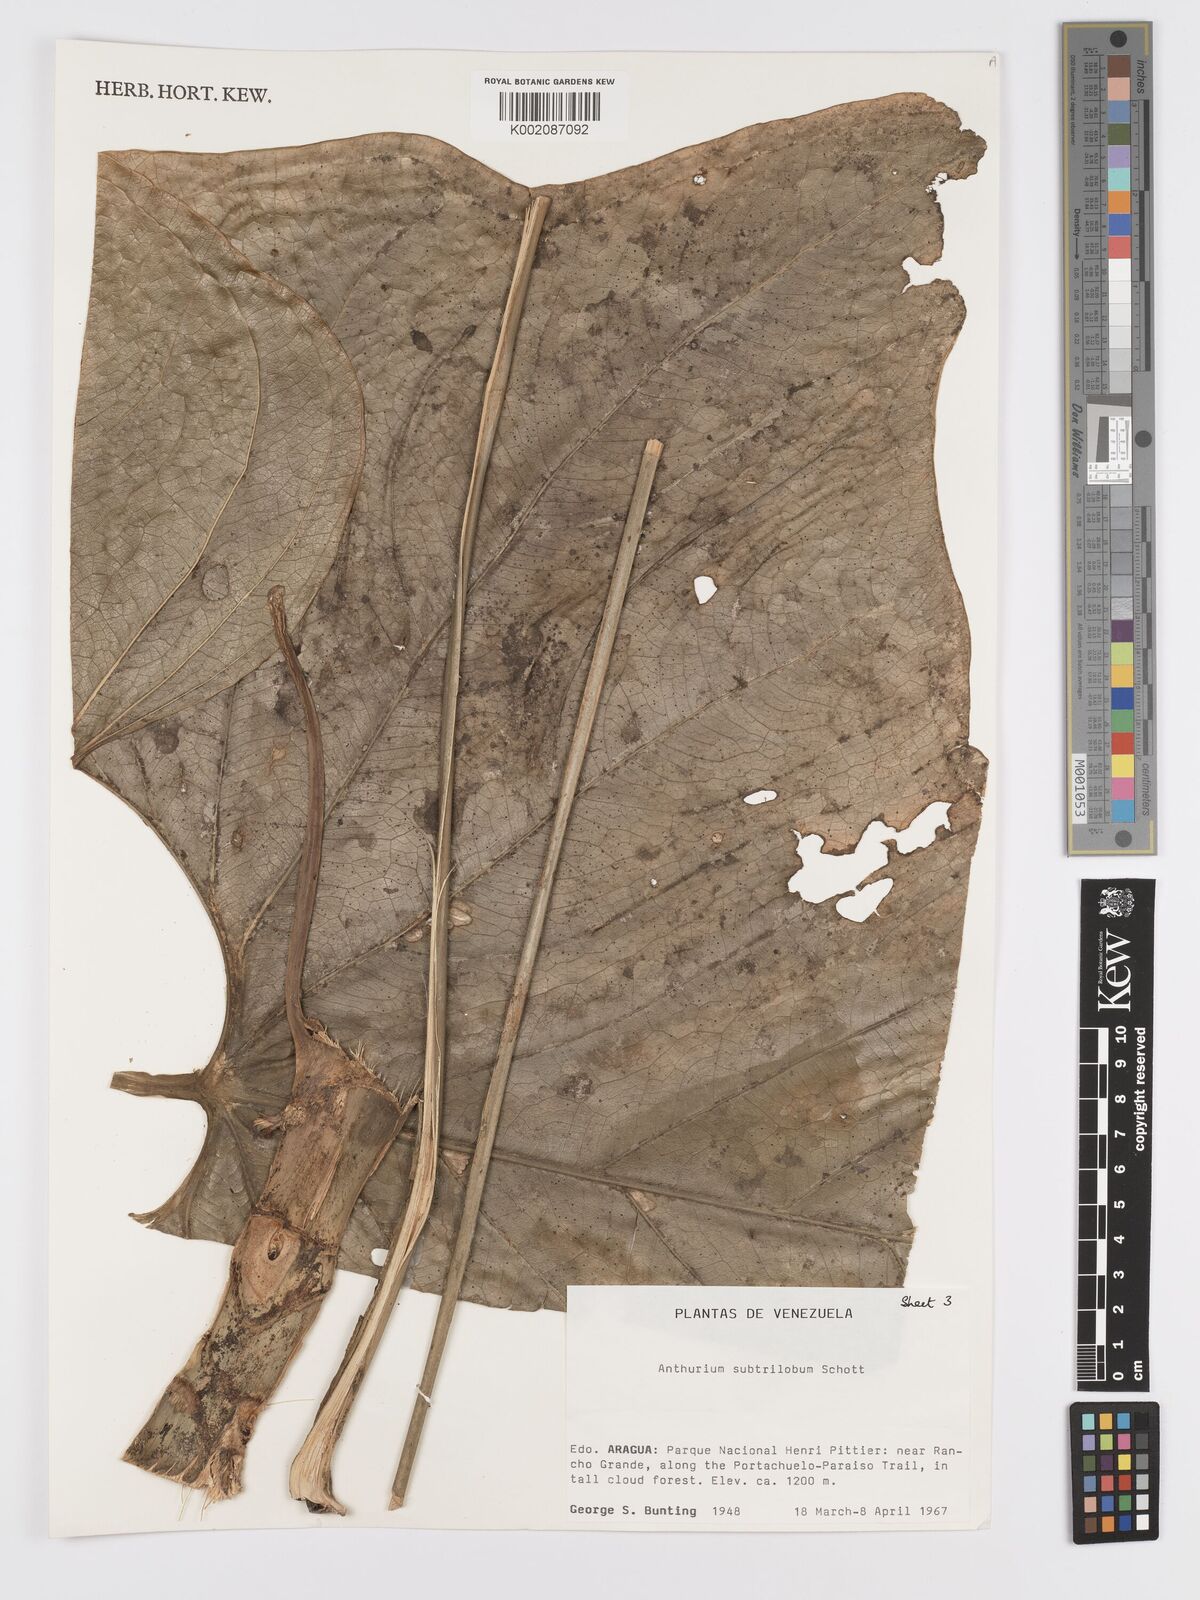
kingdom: Plantae
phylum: Tracheophyta
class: Liliopsida
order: Alismatales
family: Araceae
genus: Anthurium
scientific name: Anthurium subtrilobum
